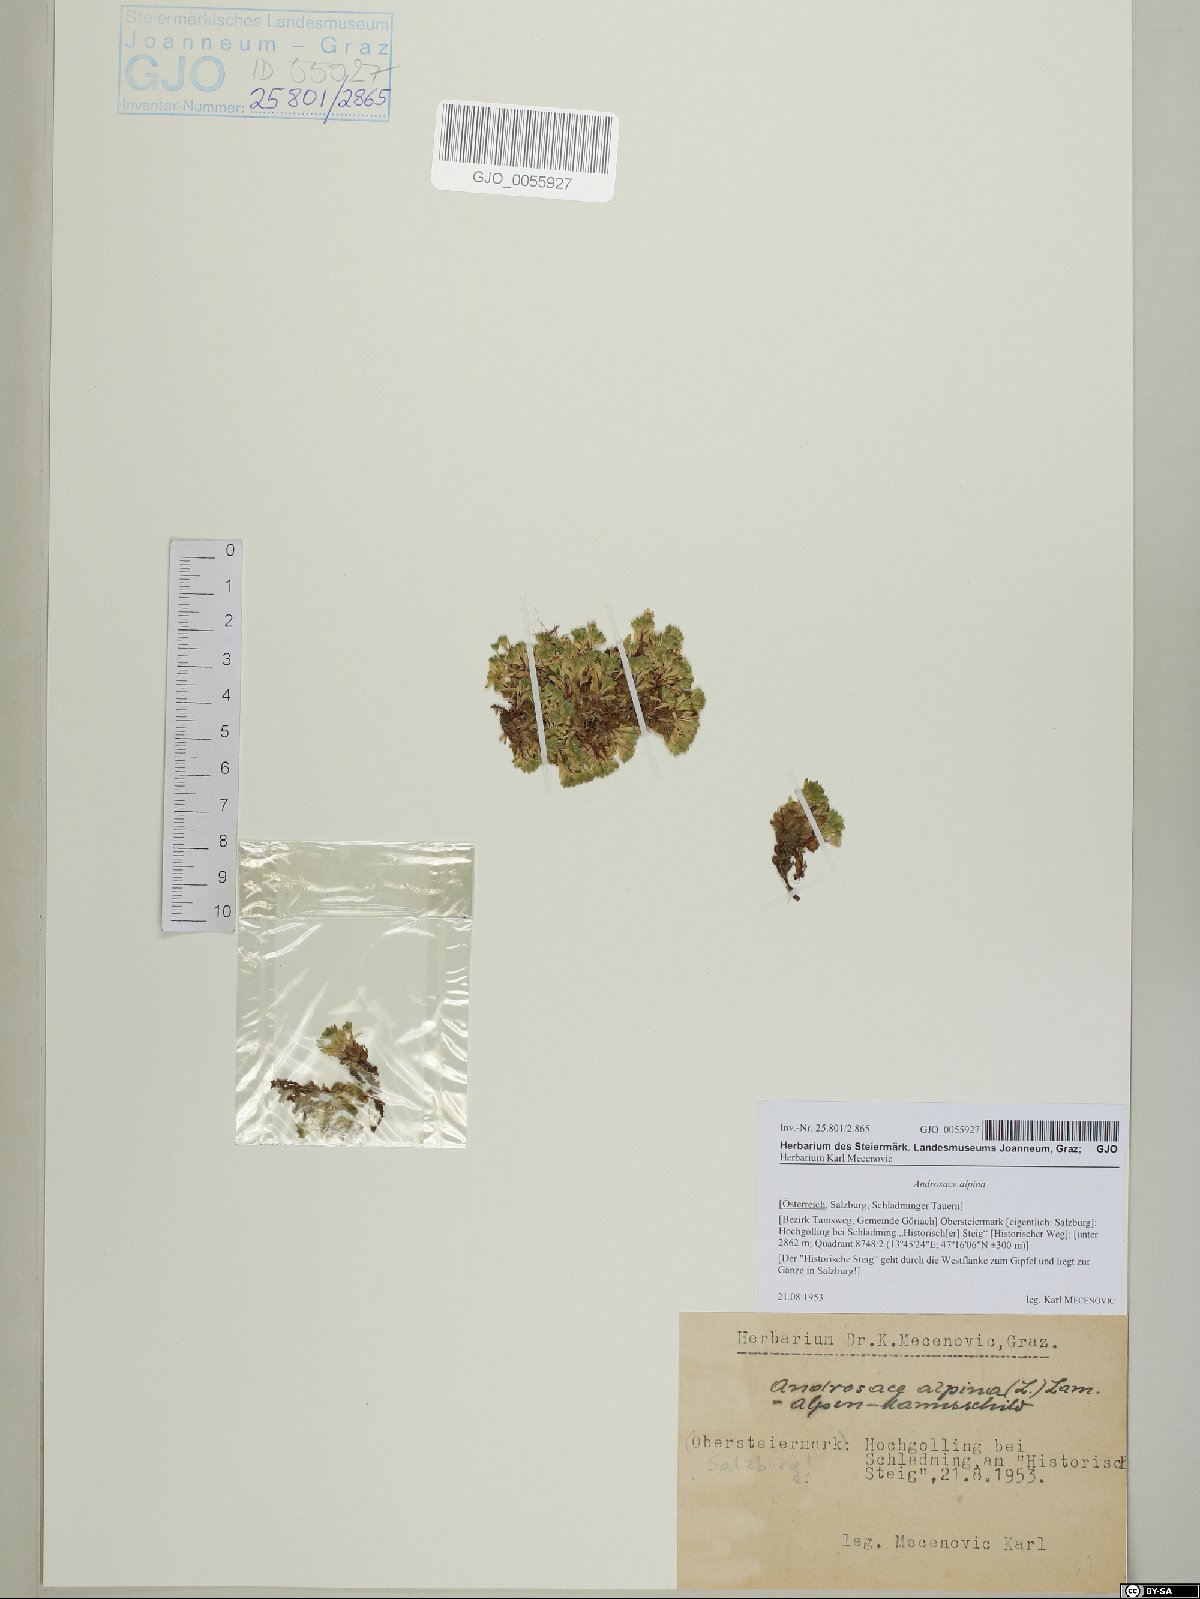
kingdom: Plantae
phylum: Tracheophyta
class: Magnoliopsida
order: Ericales
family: Primulaceae
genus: Androsace
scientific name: Androsace alpina
